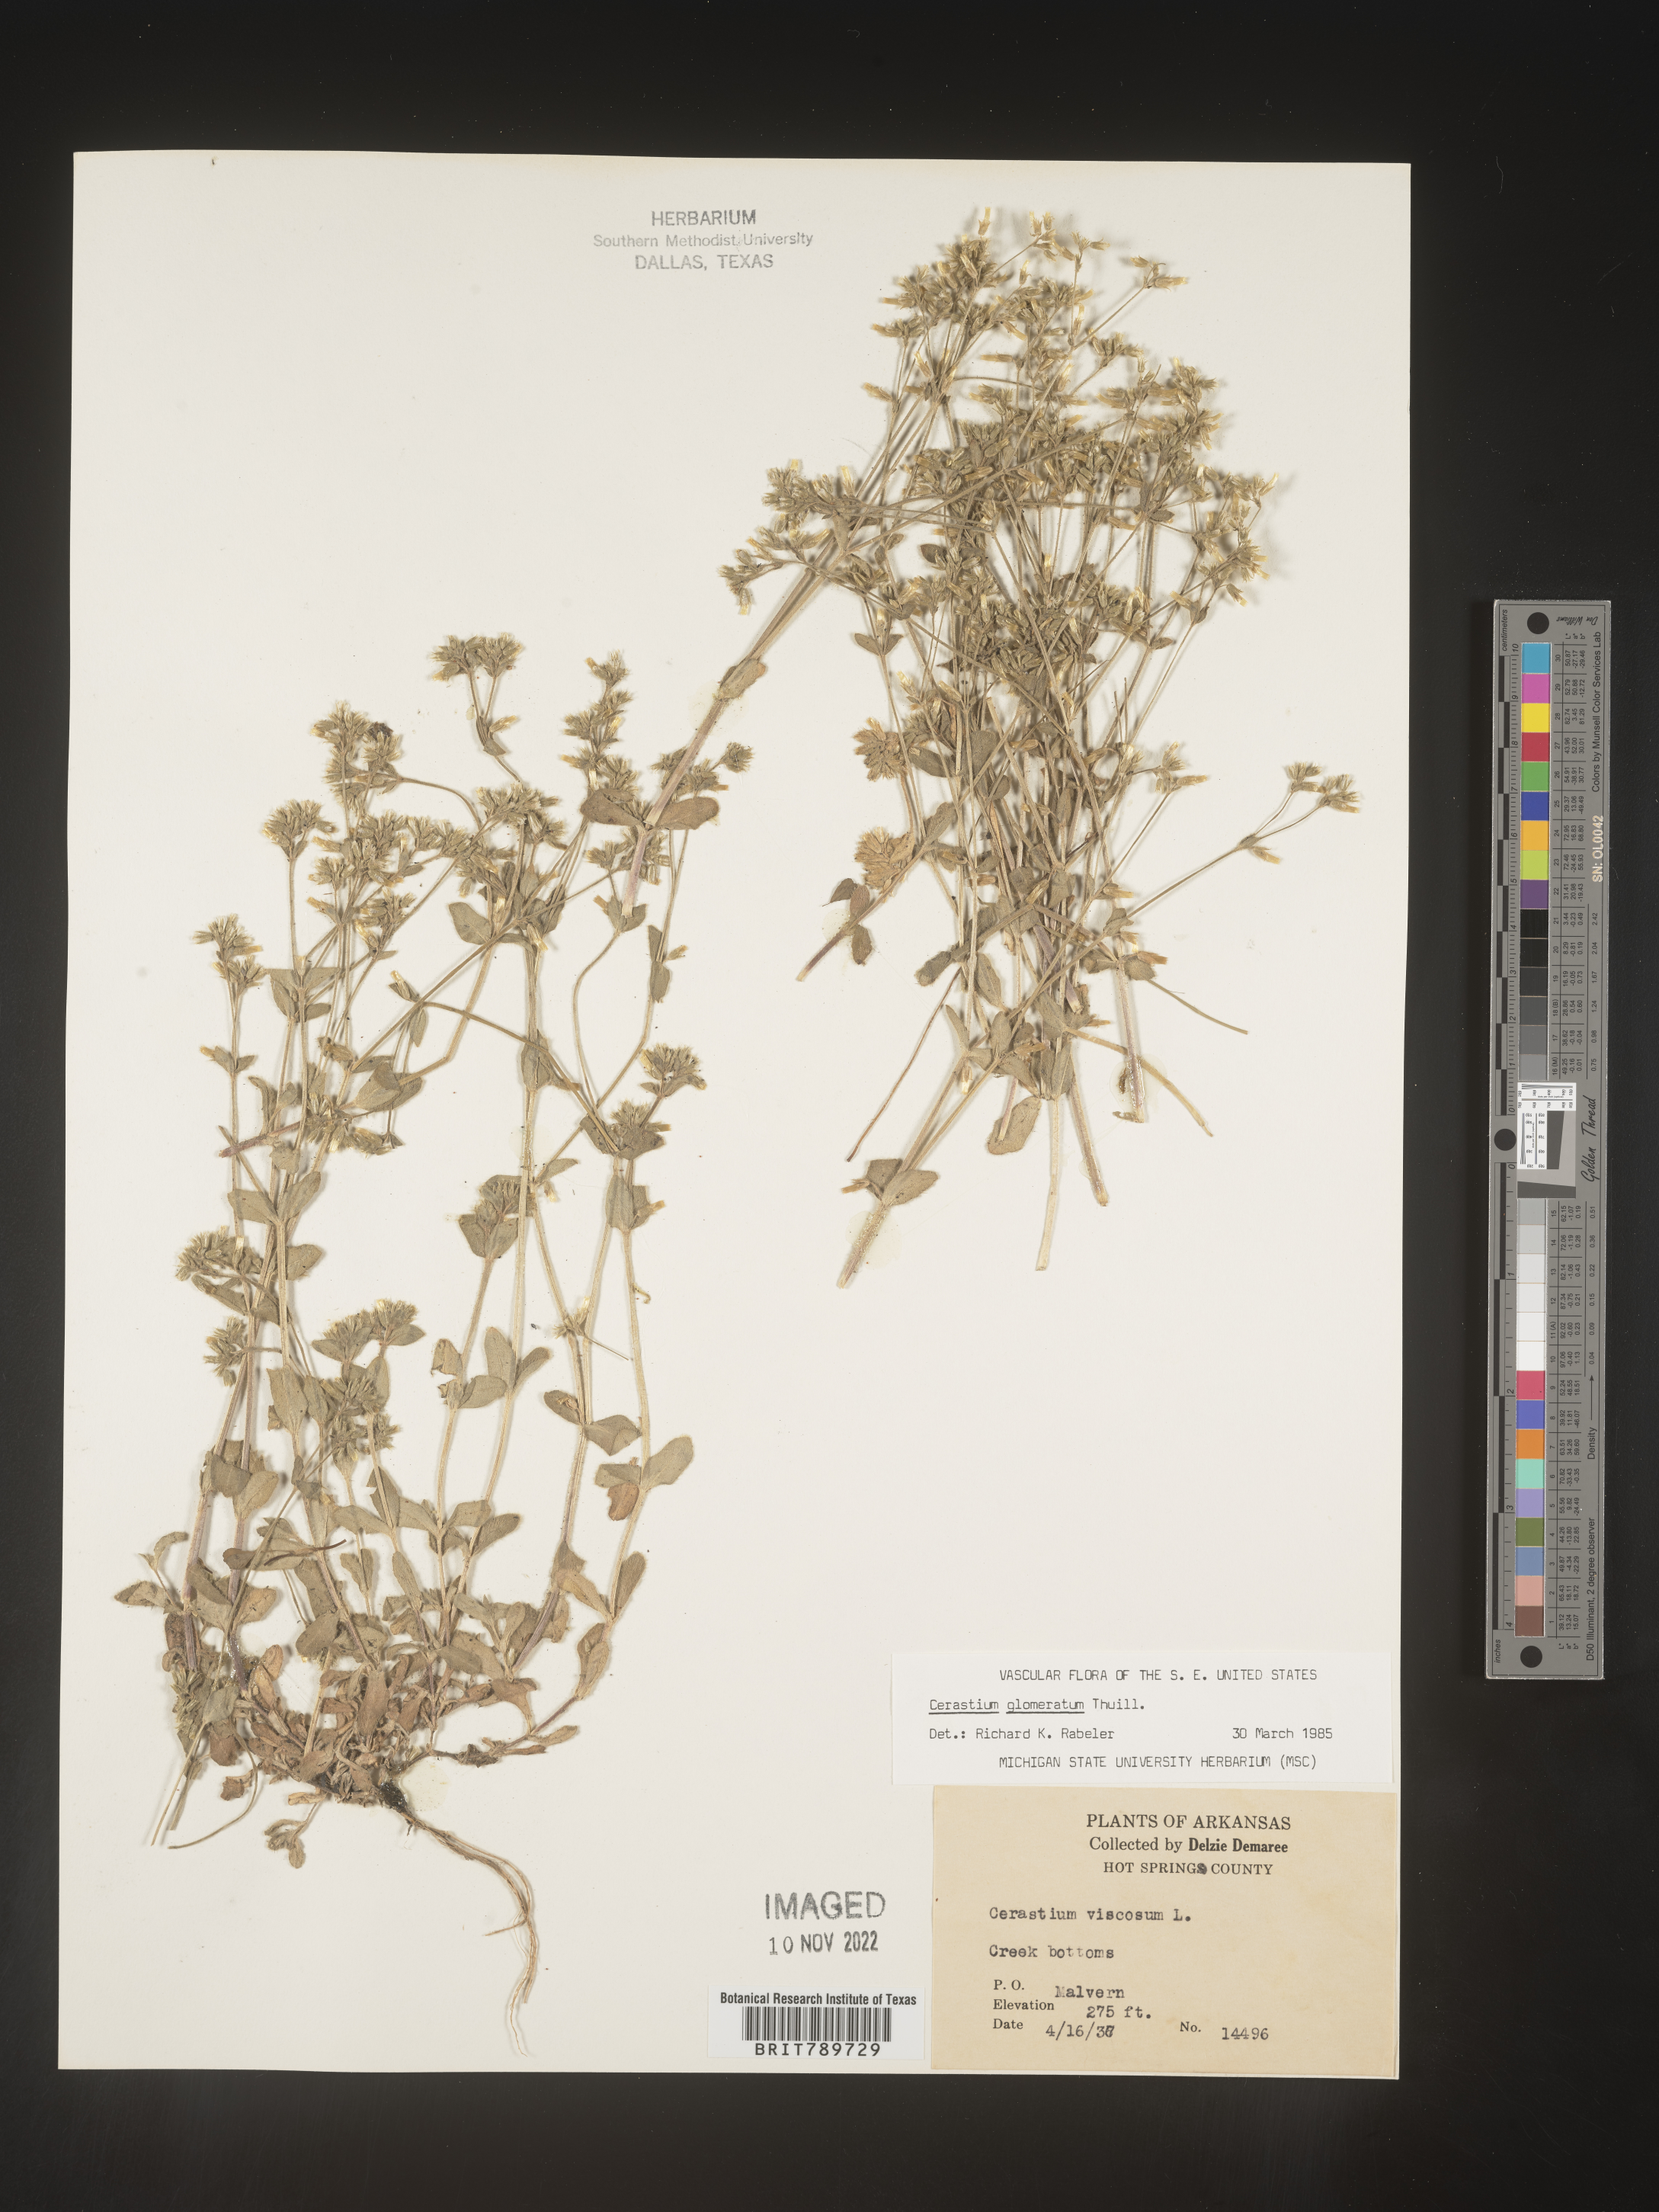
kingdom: Plantae
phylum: Tracheophyta
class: Magnoliopsida
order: Caryophyllales
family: Caryophyllaceae
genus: Cerastium
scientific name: Cerastium glomeratum
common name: Sticky chickweed
